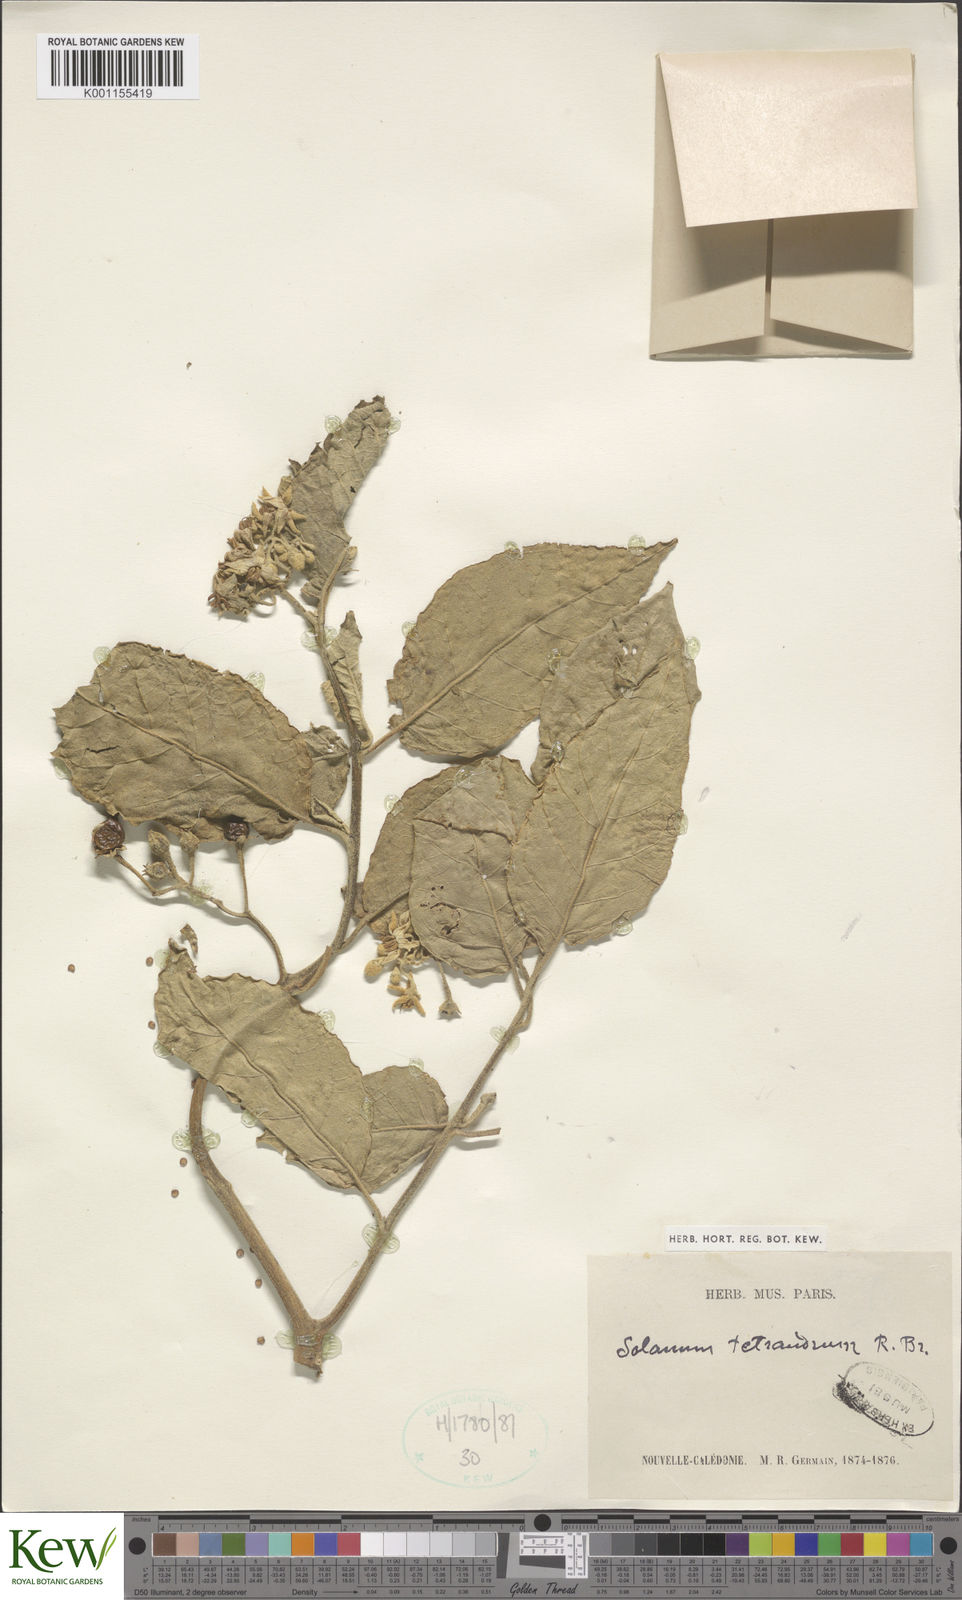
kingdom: Plantae
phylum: Tracheophyta
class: Magnoliopsida
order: Solanales
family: Solanaceae
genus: Solanum
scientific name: Solanum tetrandrum
